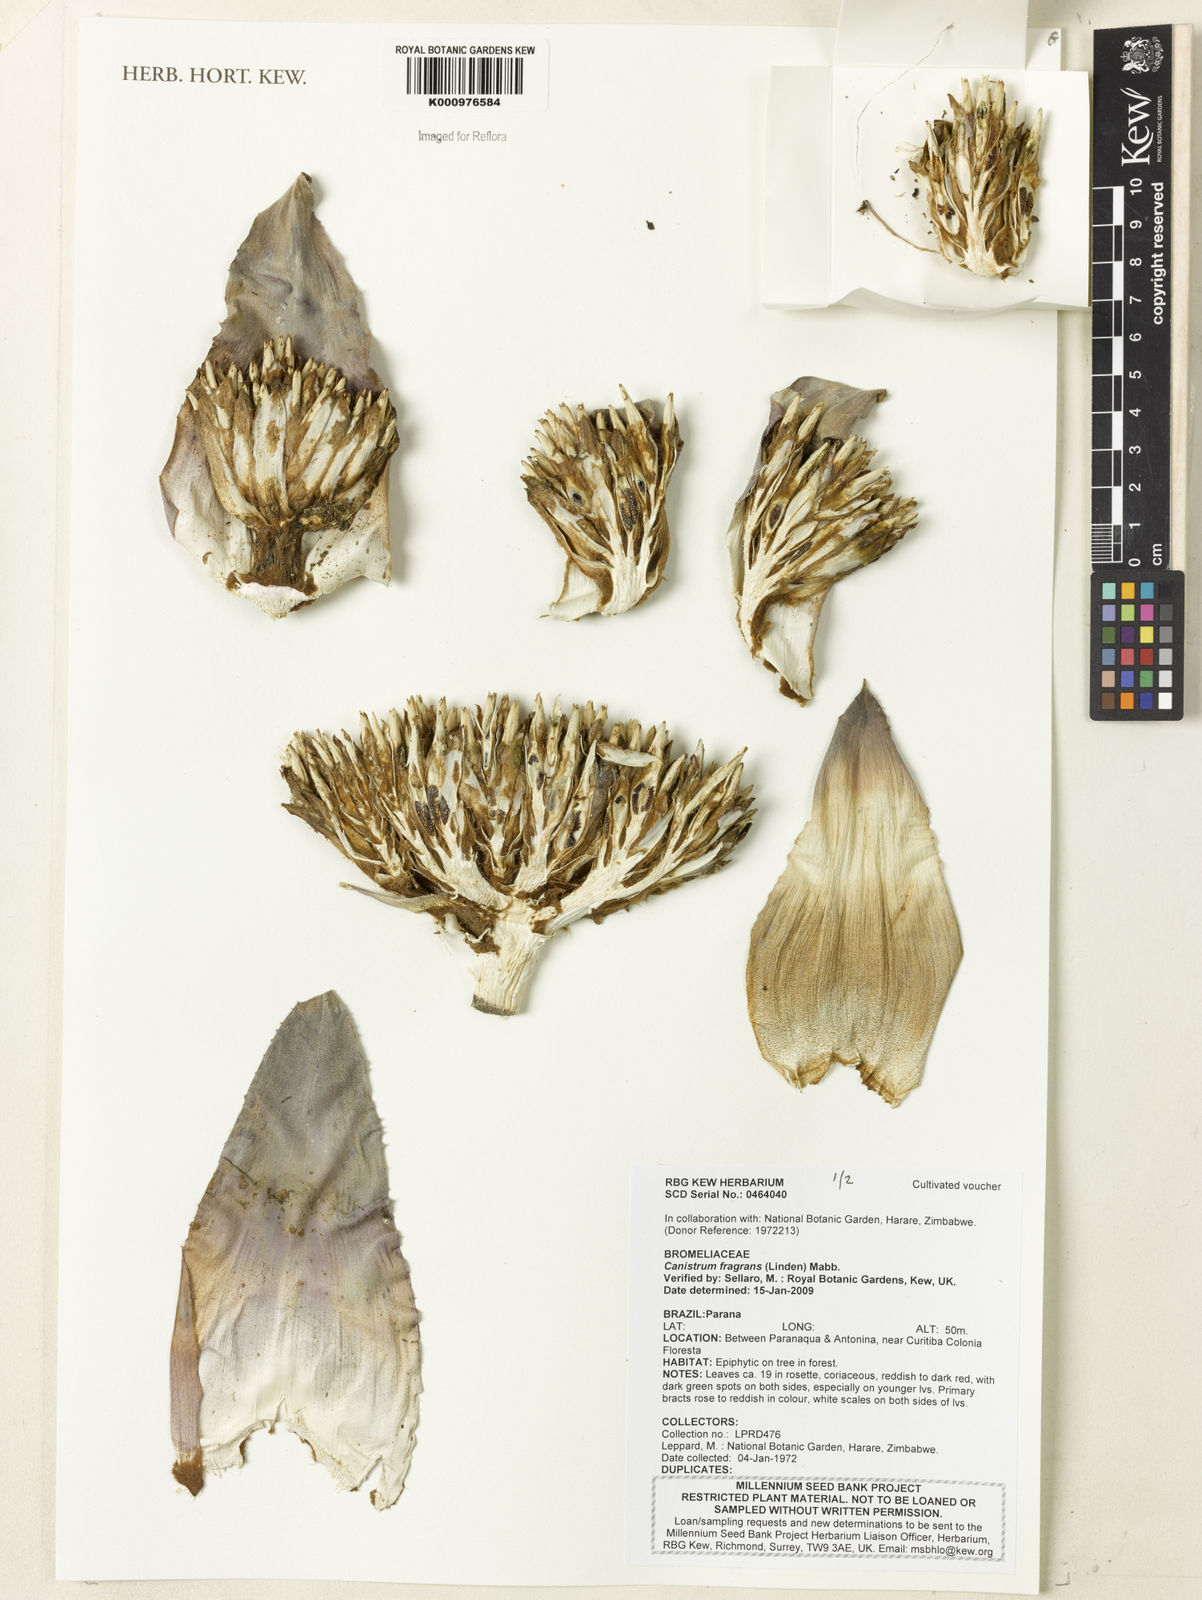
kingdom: Plantae
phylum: Tracheophyta
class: Liliopsida
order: Poales
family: Bromeliaceae
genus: Hohenbergia
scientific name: Hohenbergia augusta
